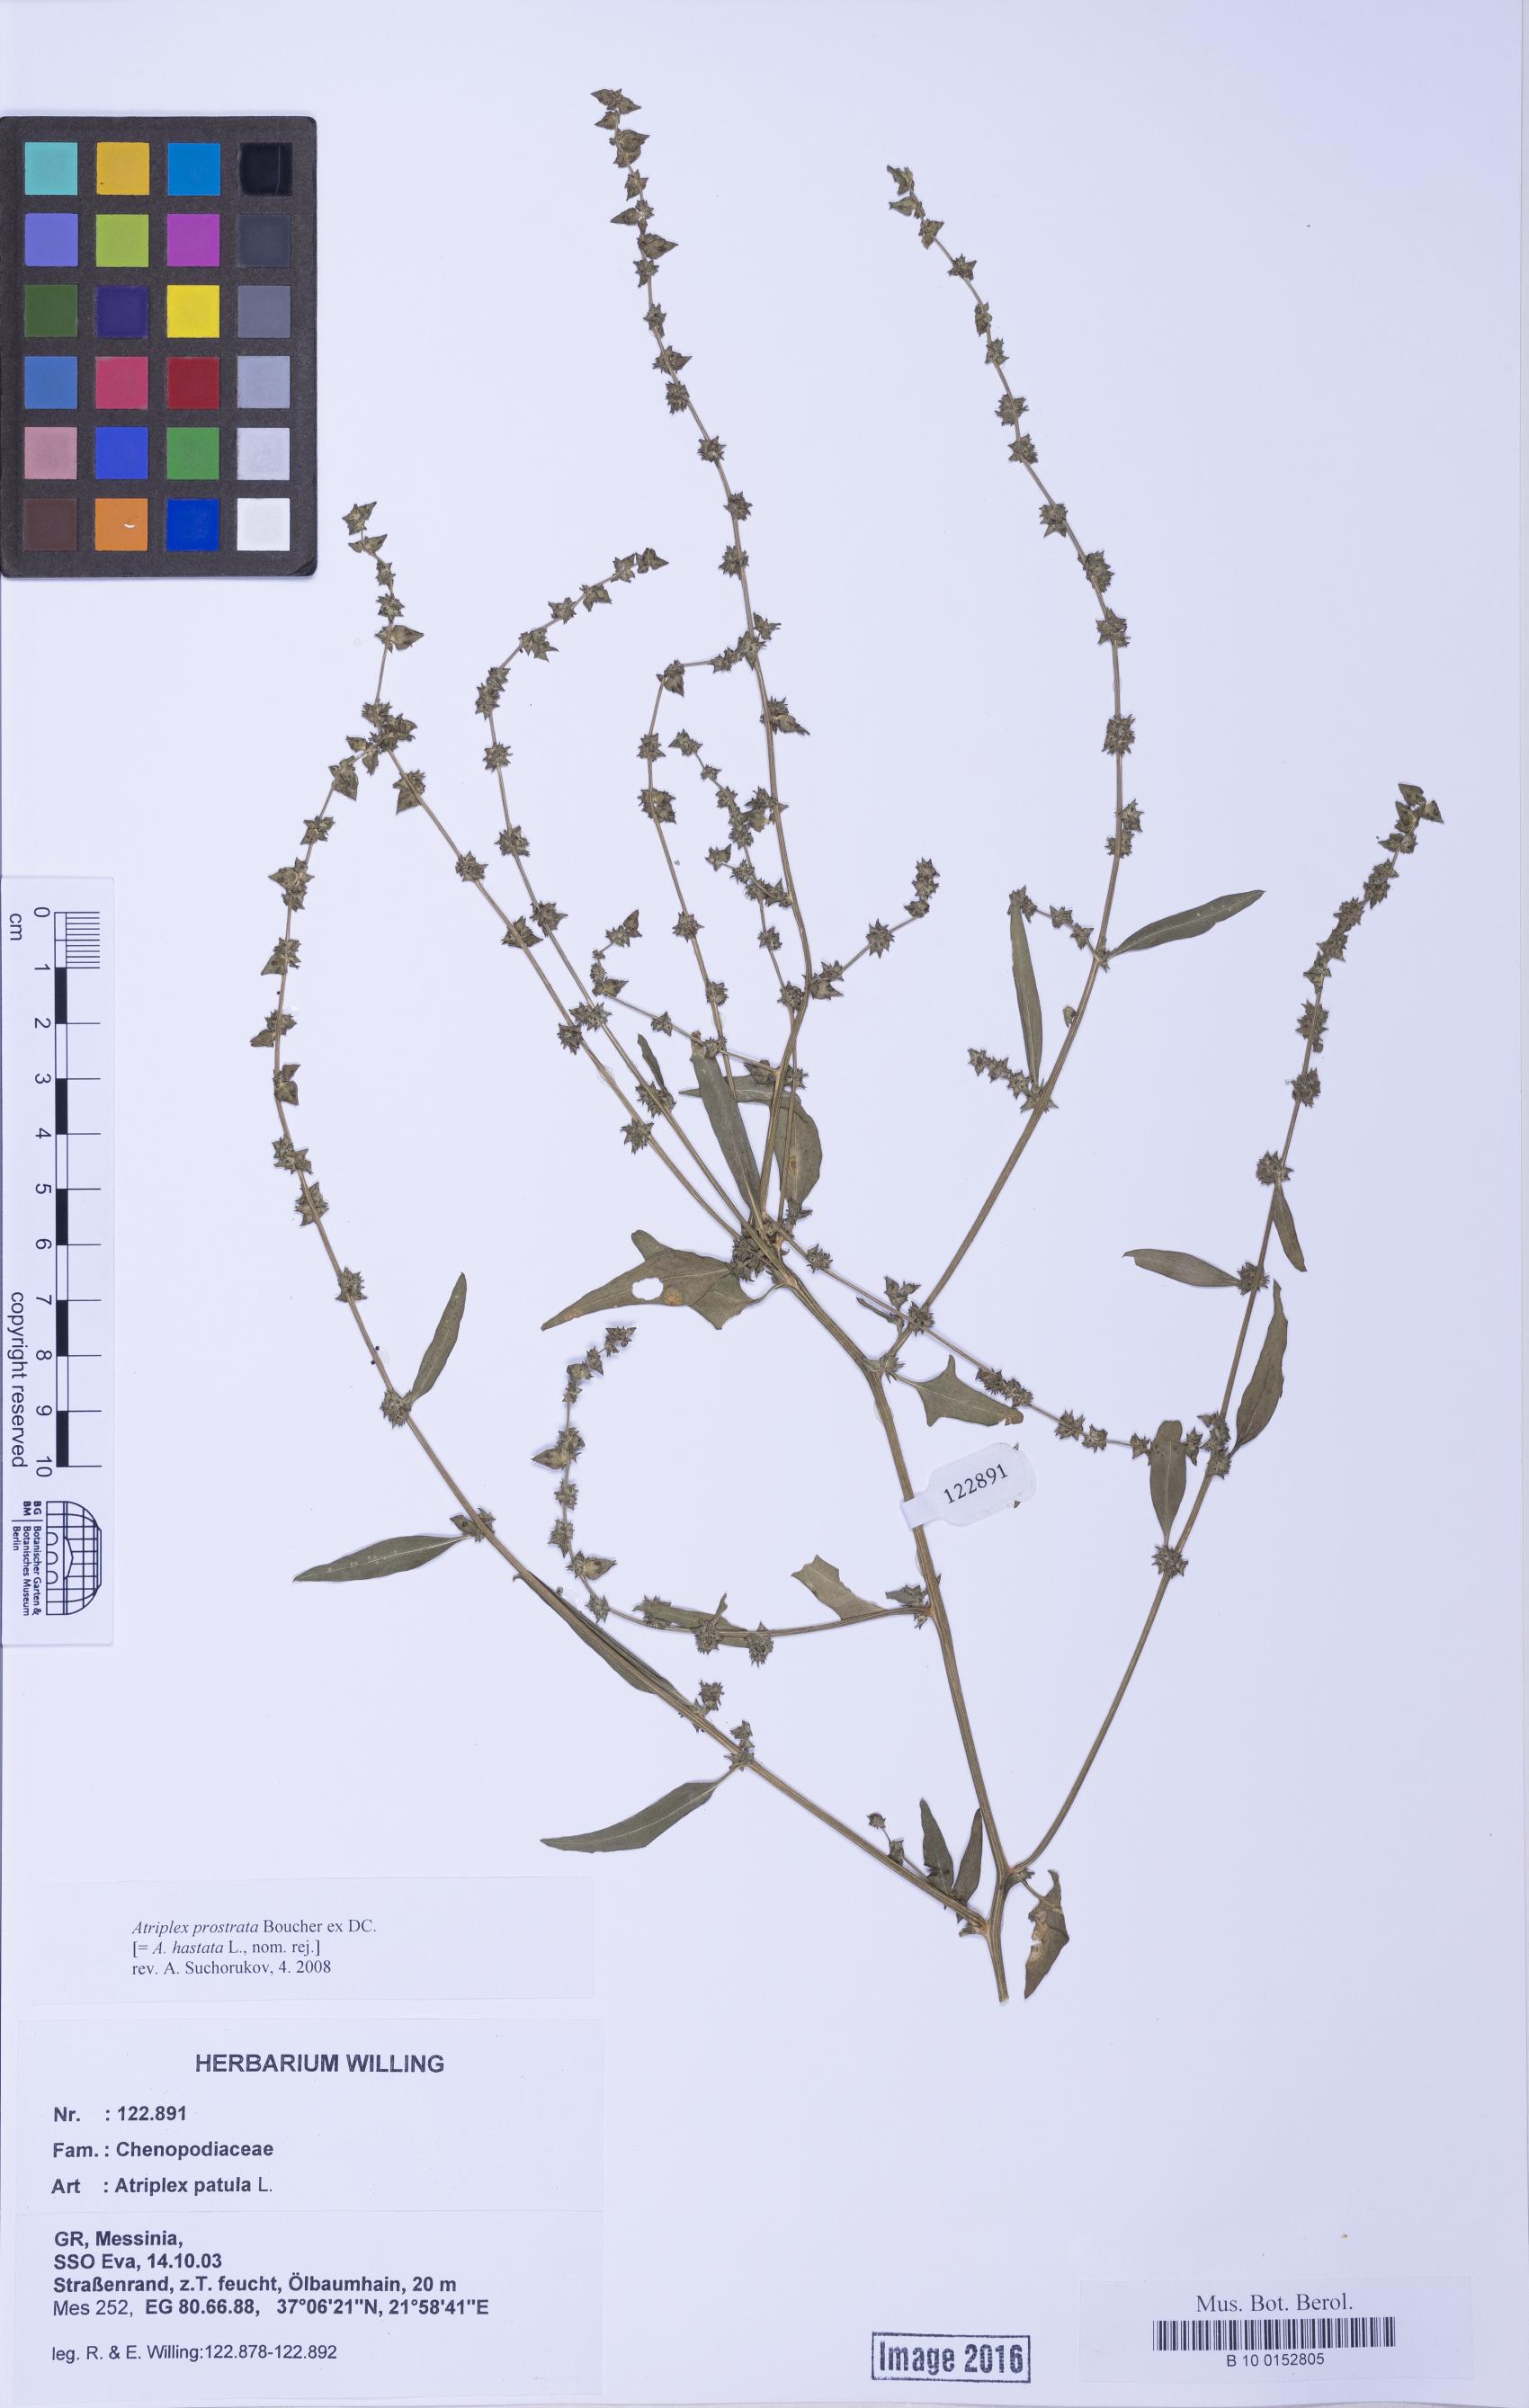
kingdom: Plantae
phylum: Tracheophyta
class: Magnoliopsida
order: Caryophyllales
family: Amaranthaceae
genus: Atriplex
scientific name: Atriplex prostrata
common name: Spear-leaved orache
